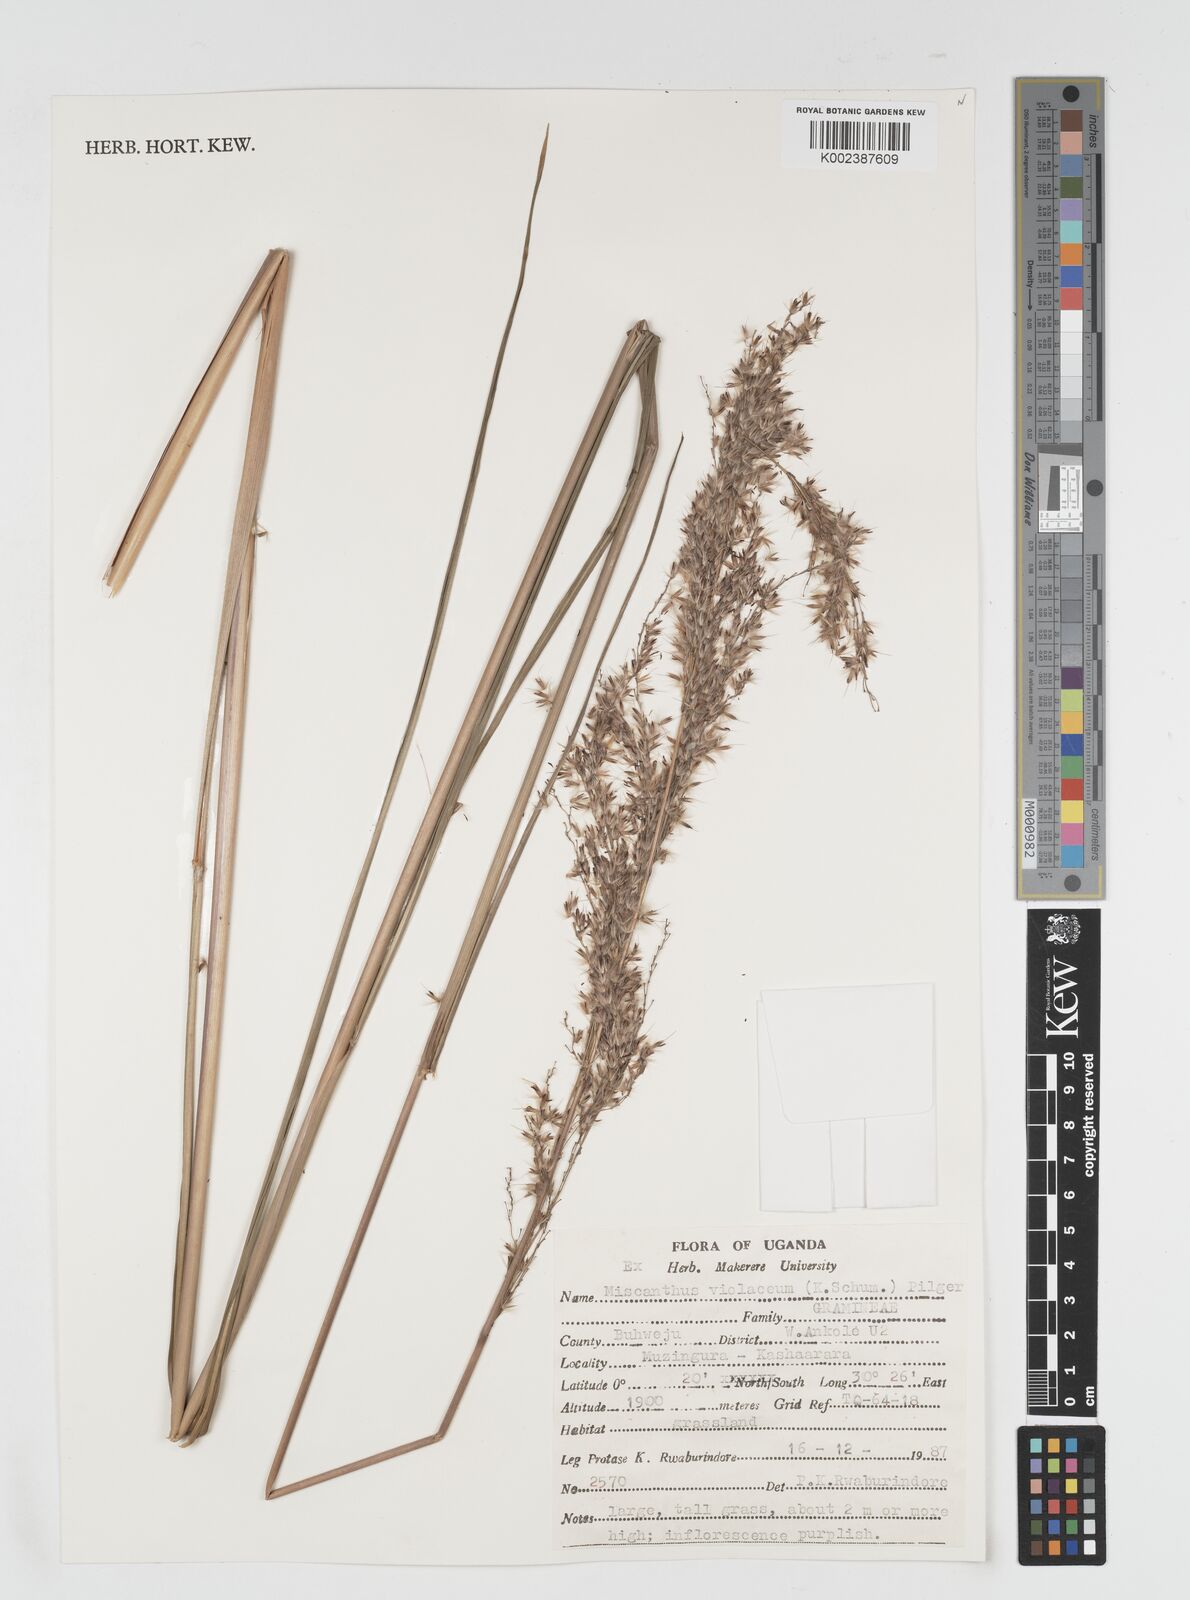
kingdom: Plantae
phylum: Tracheophyta
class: Liliopsida
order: Poales
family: Poaceae
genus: Miscanthidium
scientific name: Miscanthidium violaceum
